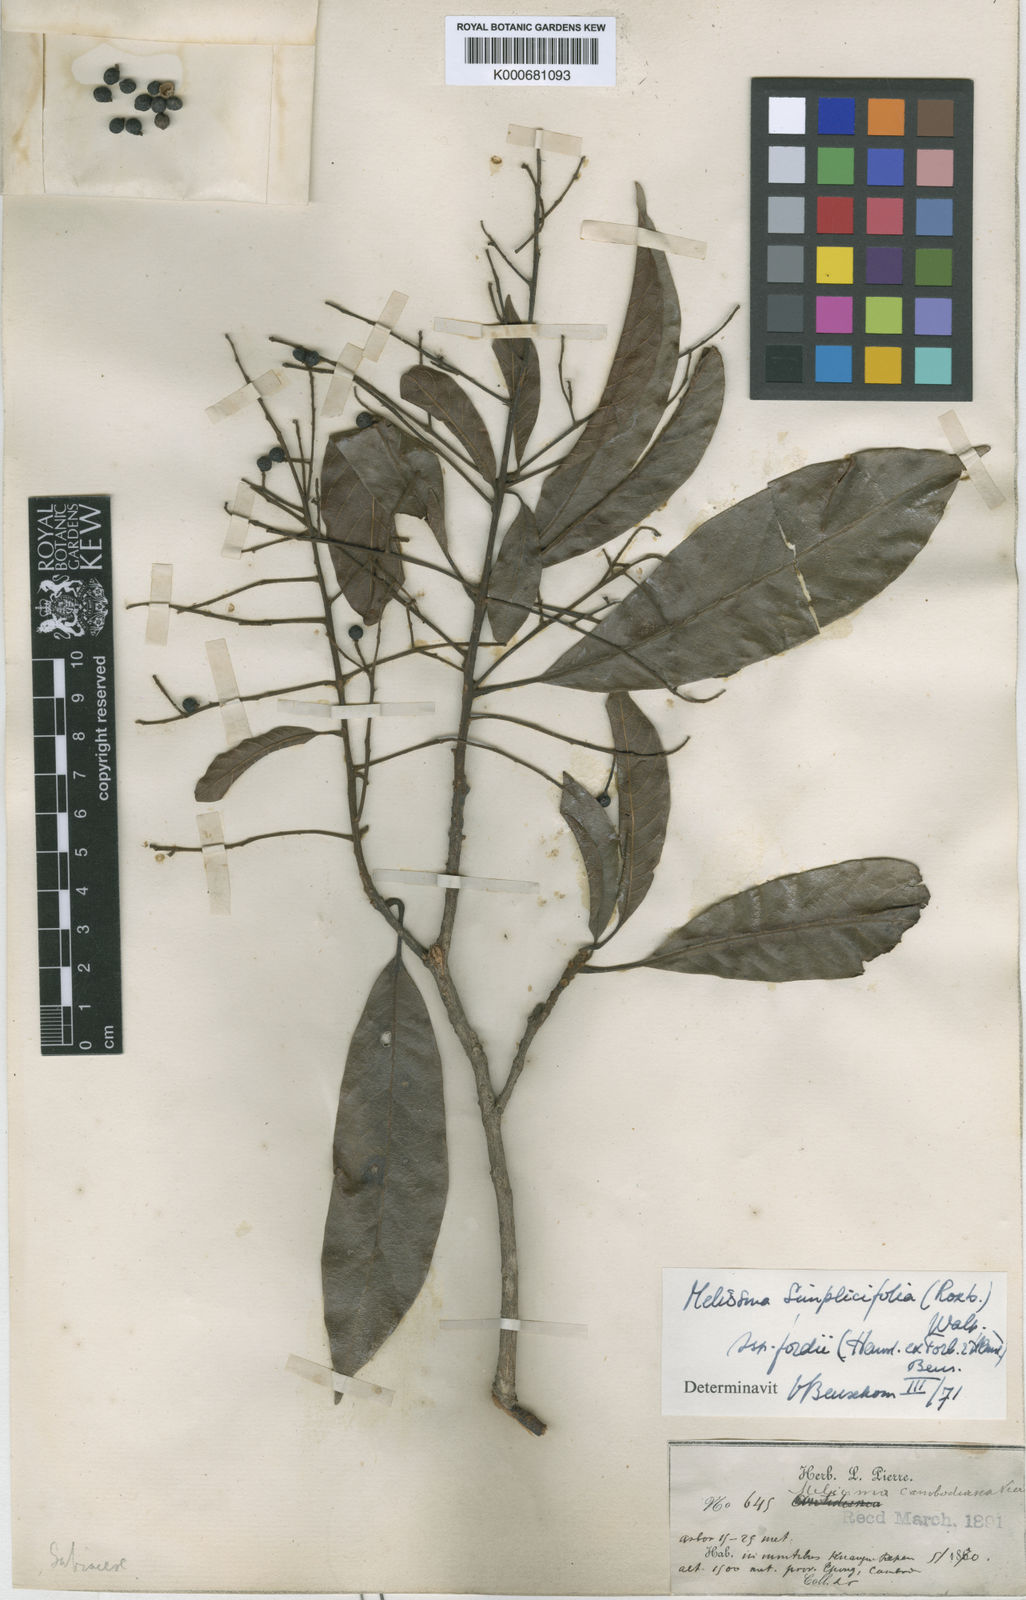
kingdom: Plantae
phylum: Tracheophyta
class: Magnoliopsida
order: Proteales
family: Sabiaceae
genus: Meliosma
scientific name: Meliosma fordii
